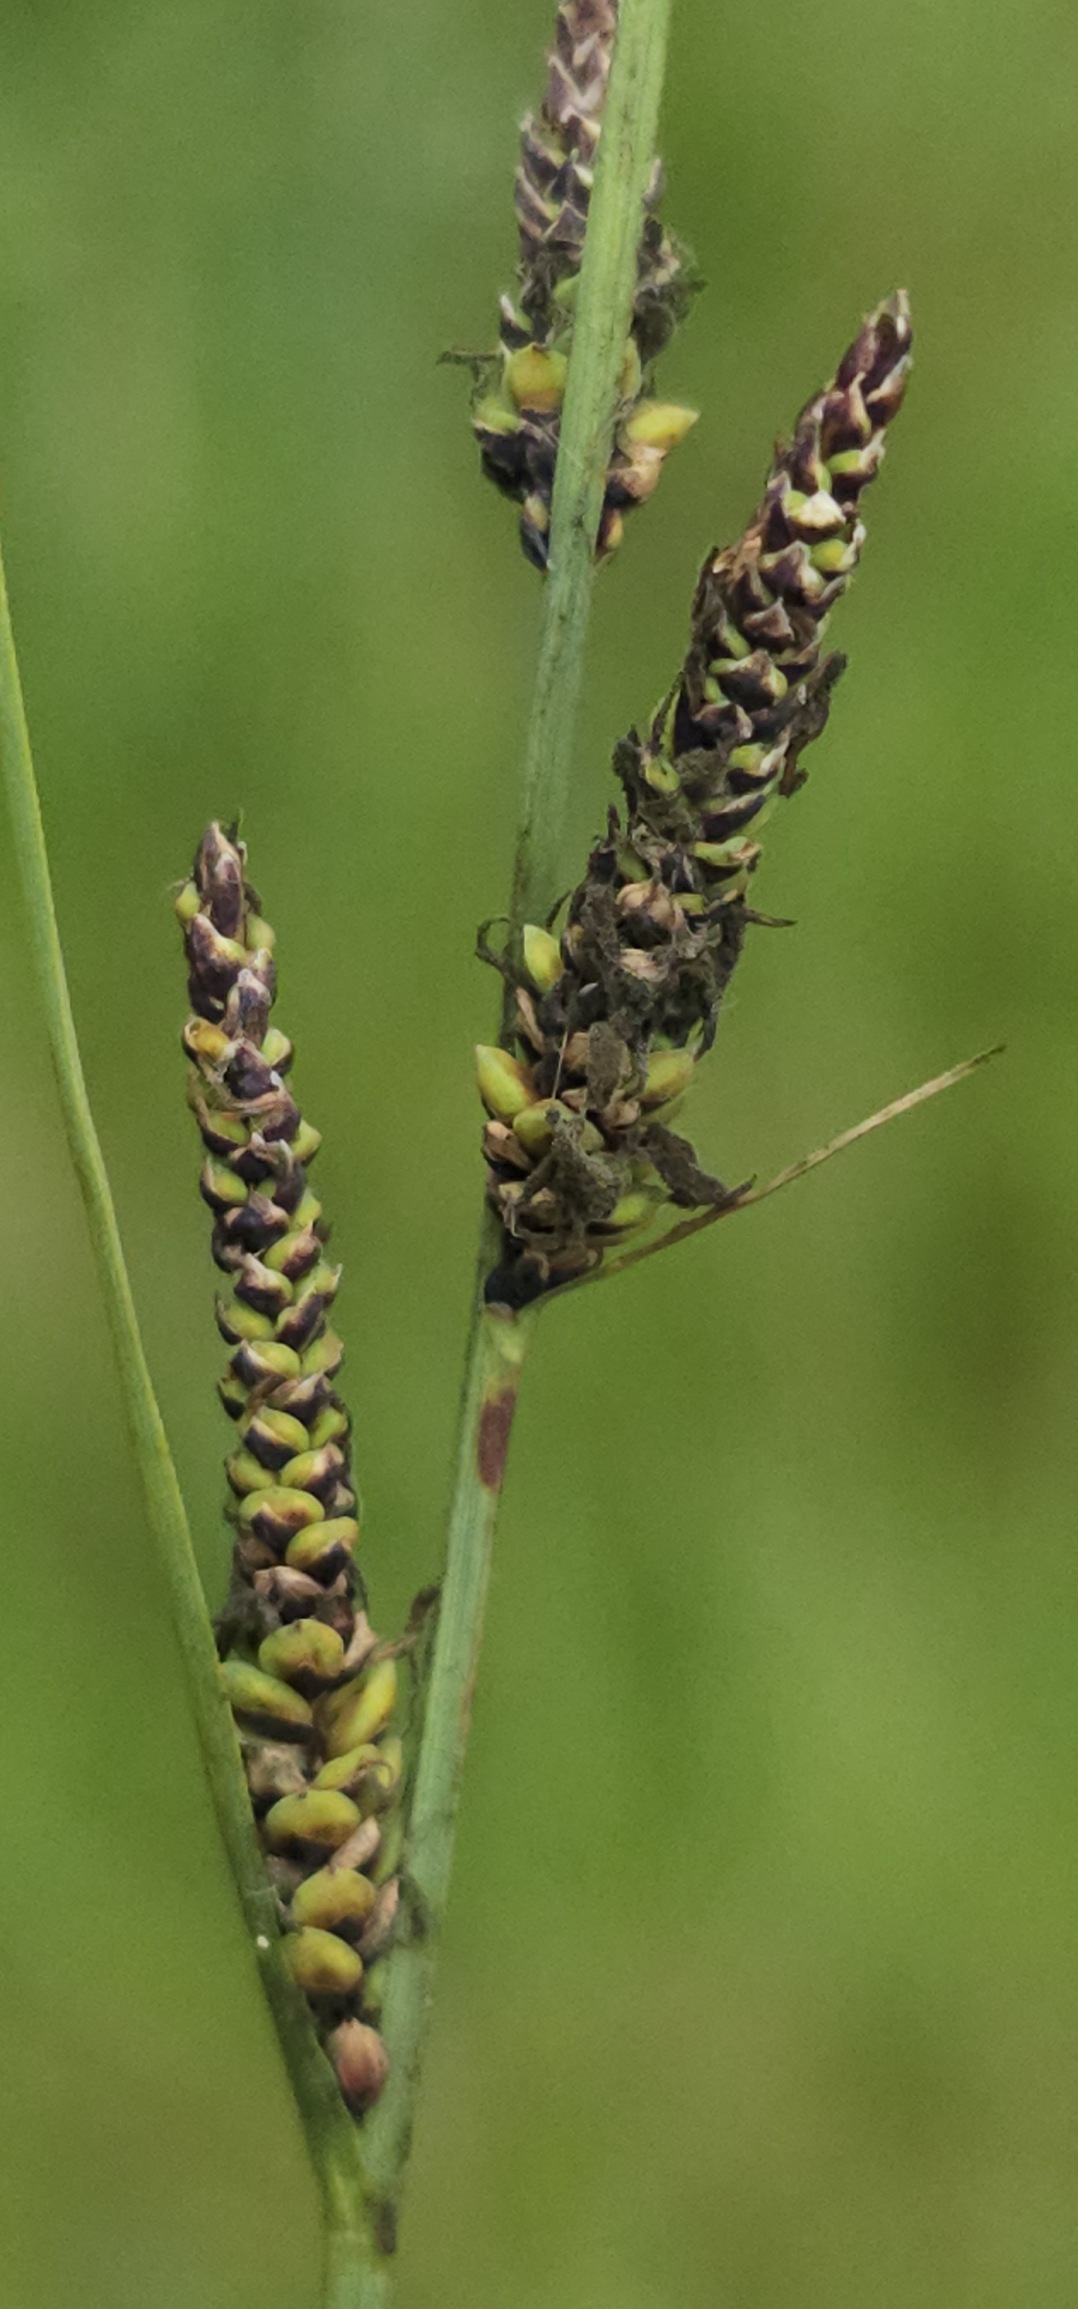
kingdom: Plantae
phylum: Tracheophyta
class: Liliopsida
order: Poales
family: Cyperaceae
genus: Carex
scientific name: Carex nigra
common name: Almindelig star
